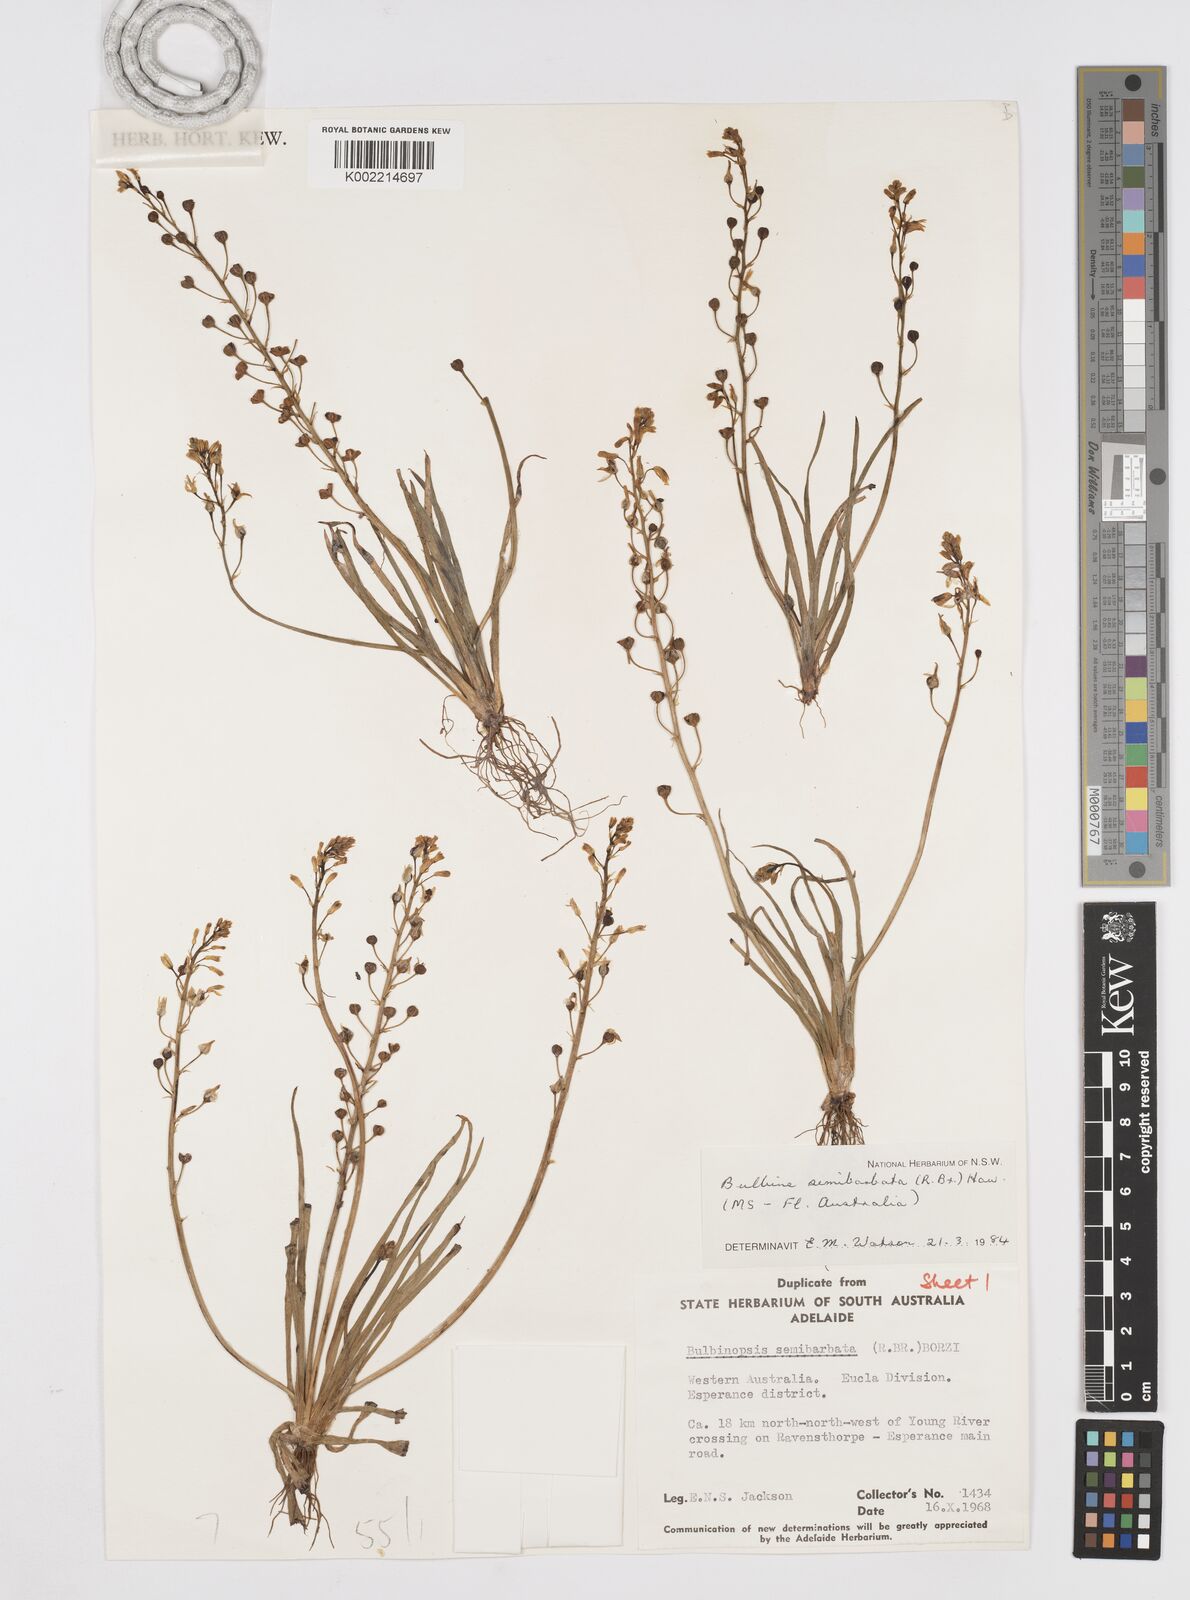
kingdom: Plantae
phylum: Tracheophyta
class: Liliopsida
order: Asparagales
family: Asphodelaceae
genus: Bulbine
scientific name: Bulbine semibarbata
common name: Leek lily
